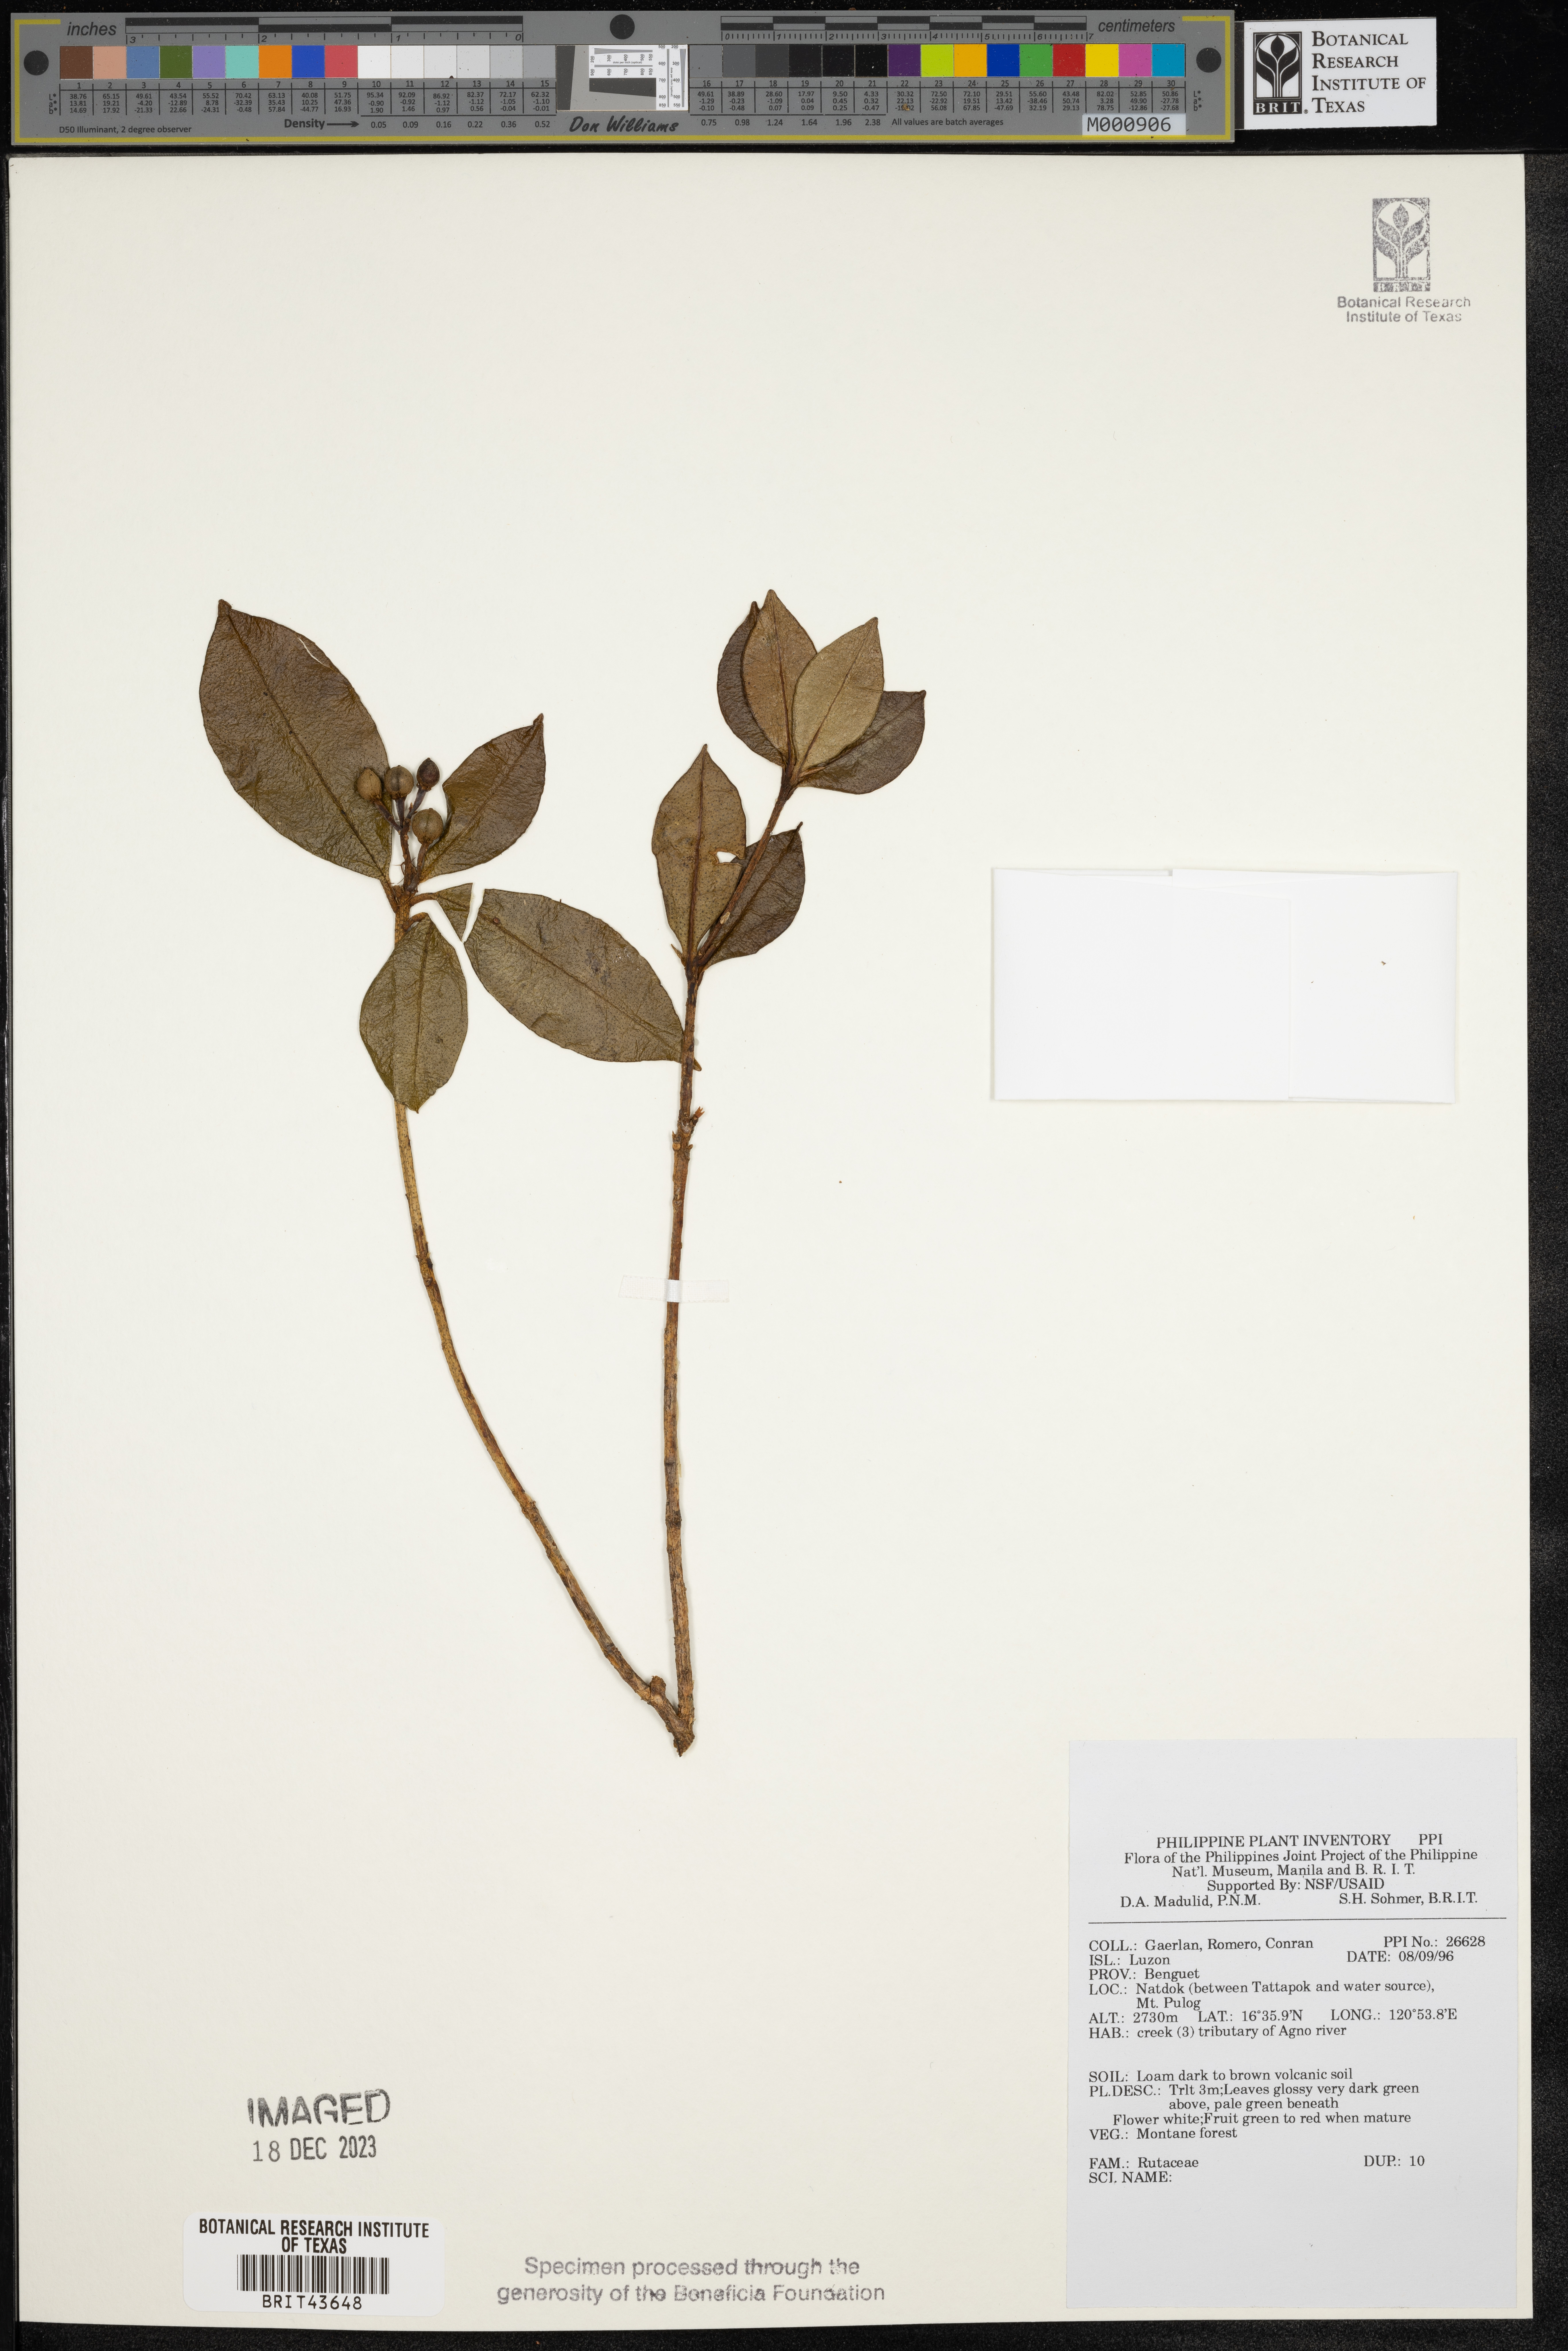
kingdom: Plantae
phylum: Tracheophyta
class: Magnoliopsida
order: Sapindales
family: Rutaceae
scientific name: Rutaceae
